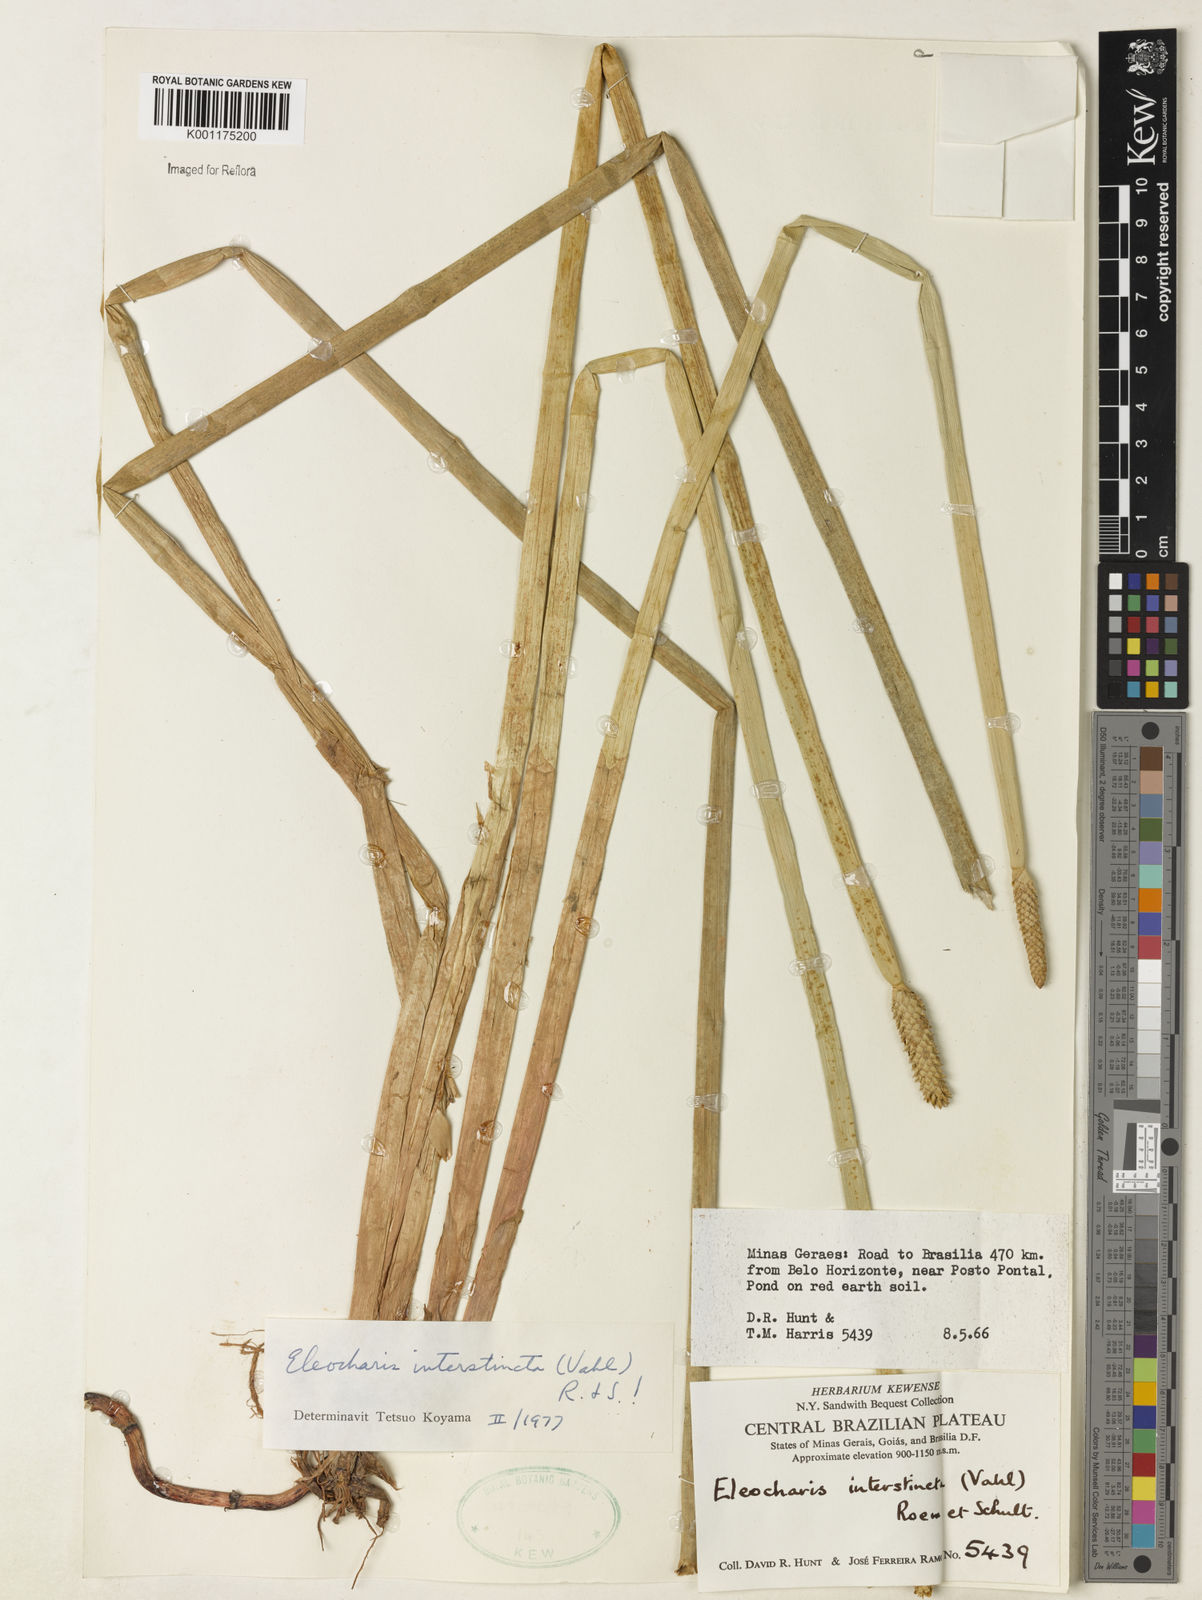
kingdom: Plantae
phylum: Tracheophyta
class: Liliopsida
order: Poales
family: Cyperaceae
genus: Eleocharis
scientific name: Eleocharis interstincta
